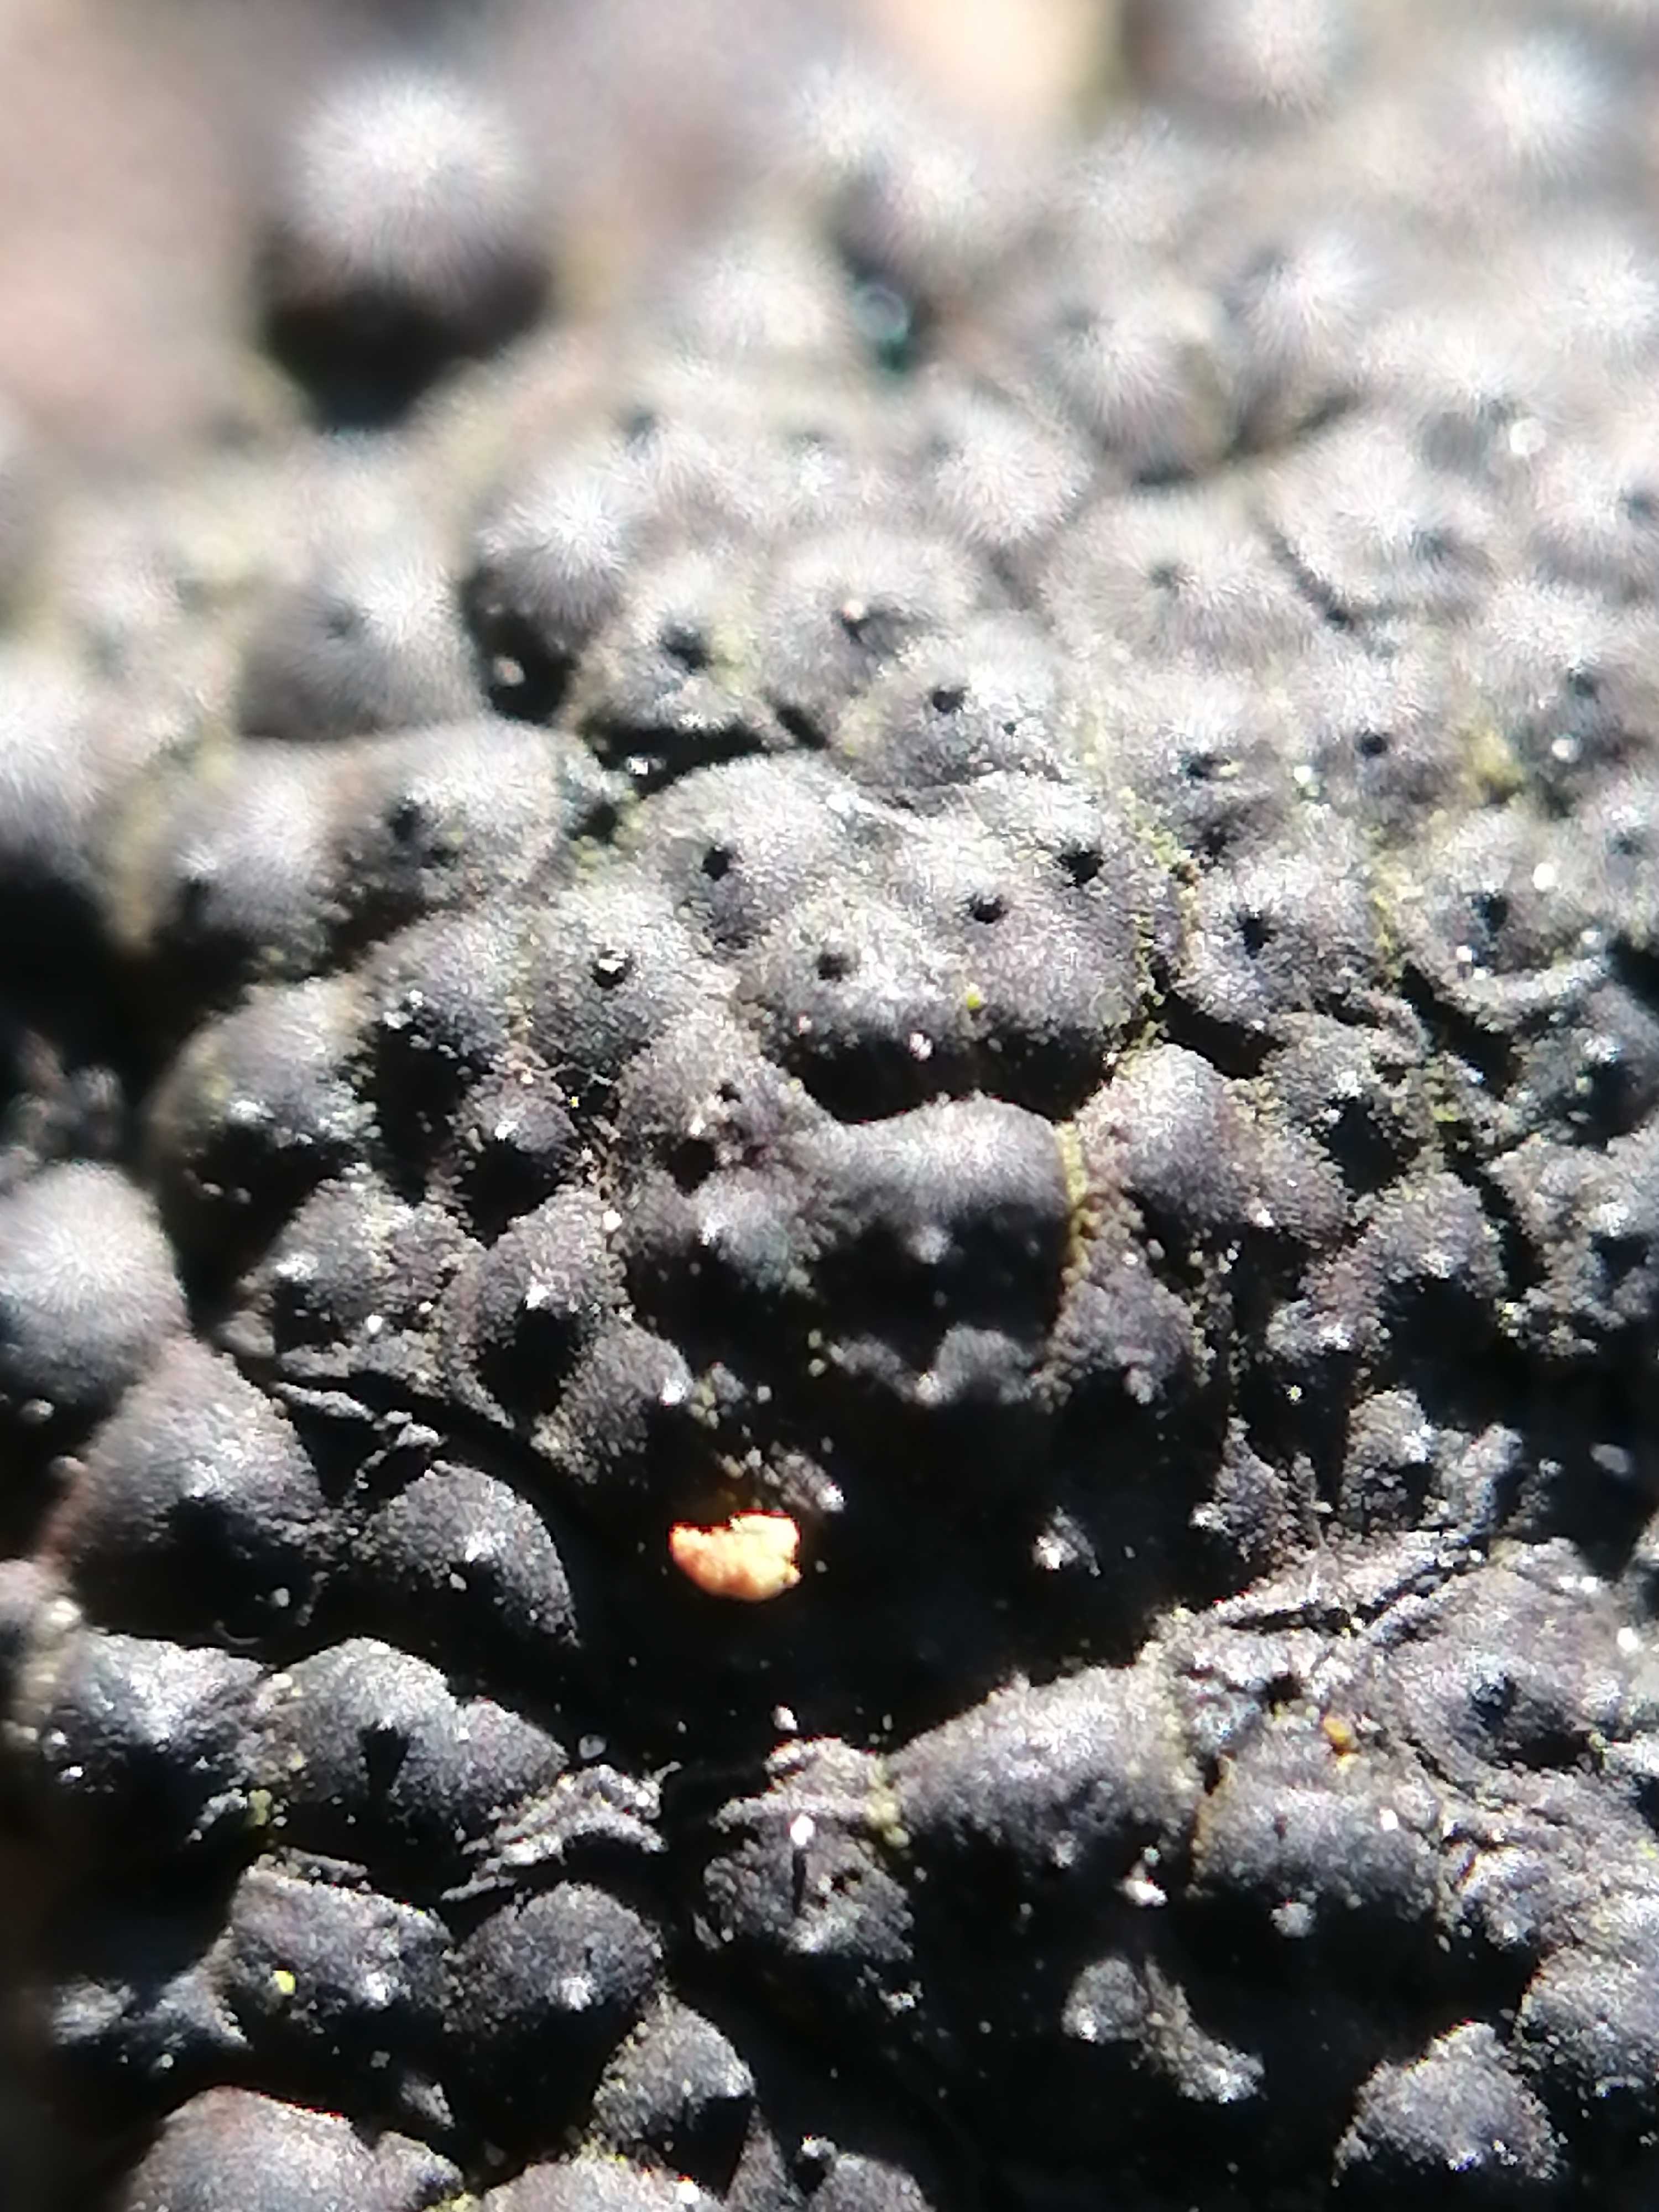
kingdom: Fungi
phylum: Ascomycota
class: Sordariomycetes
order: Xylariales
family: Hypoxylaceae
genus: Jackrogersella
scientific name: Jackrogersella
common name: kulbær
